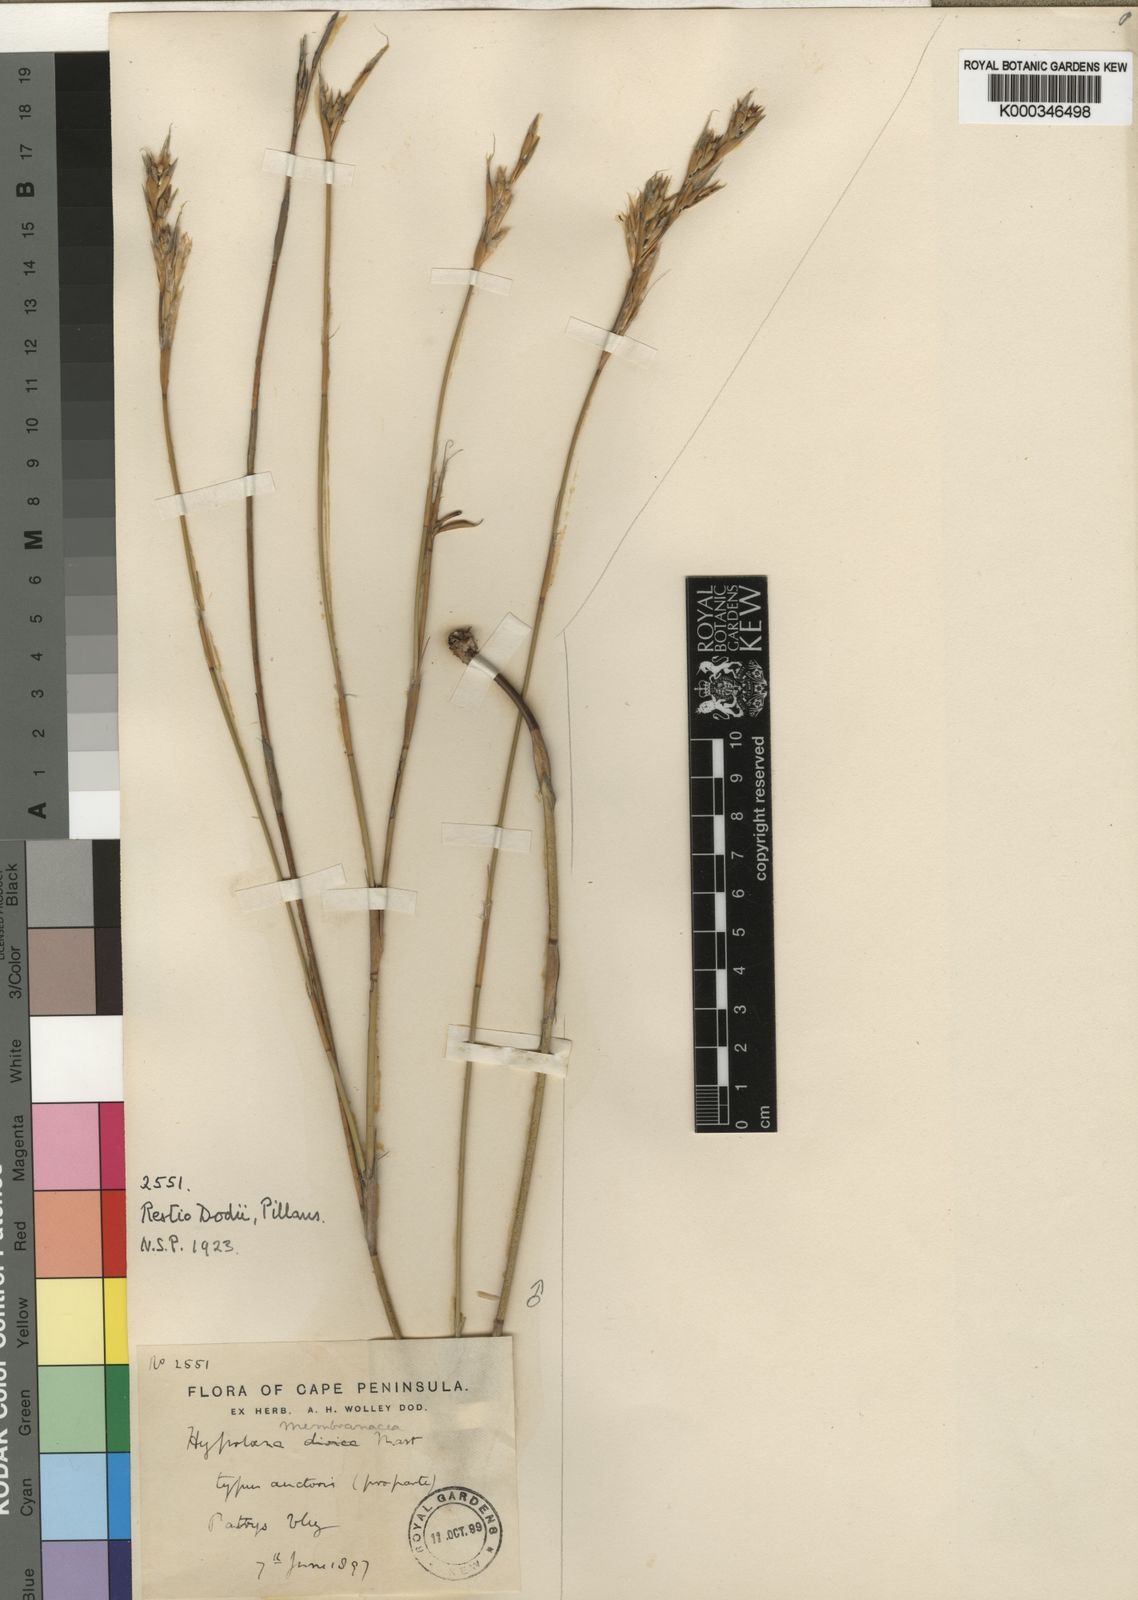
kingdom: Plantae
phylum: Tracheophyta
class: Liliopsida
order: Poales
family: Restionaceae
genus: Restio
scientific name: Restio dodii
